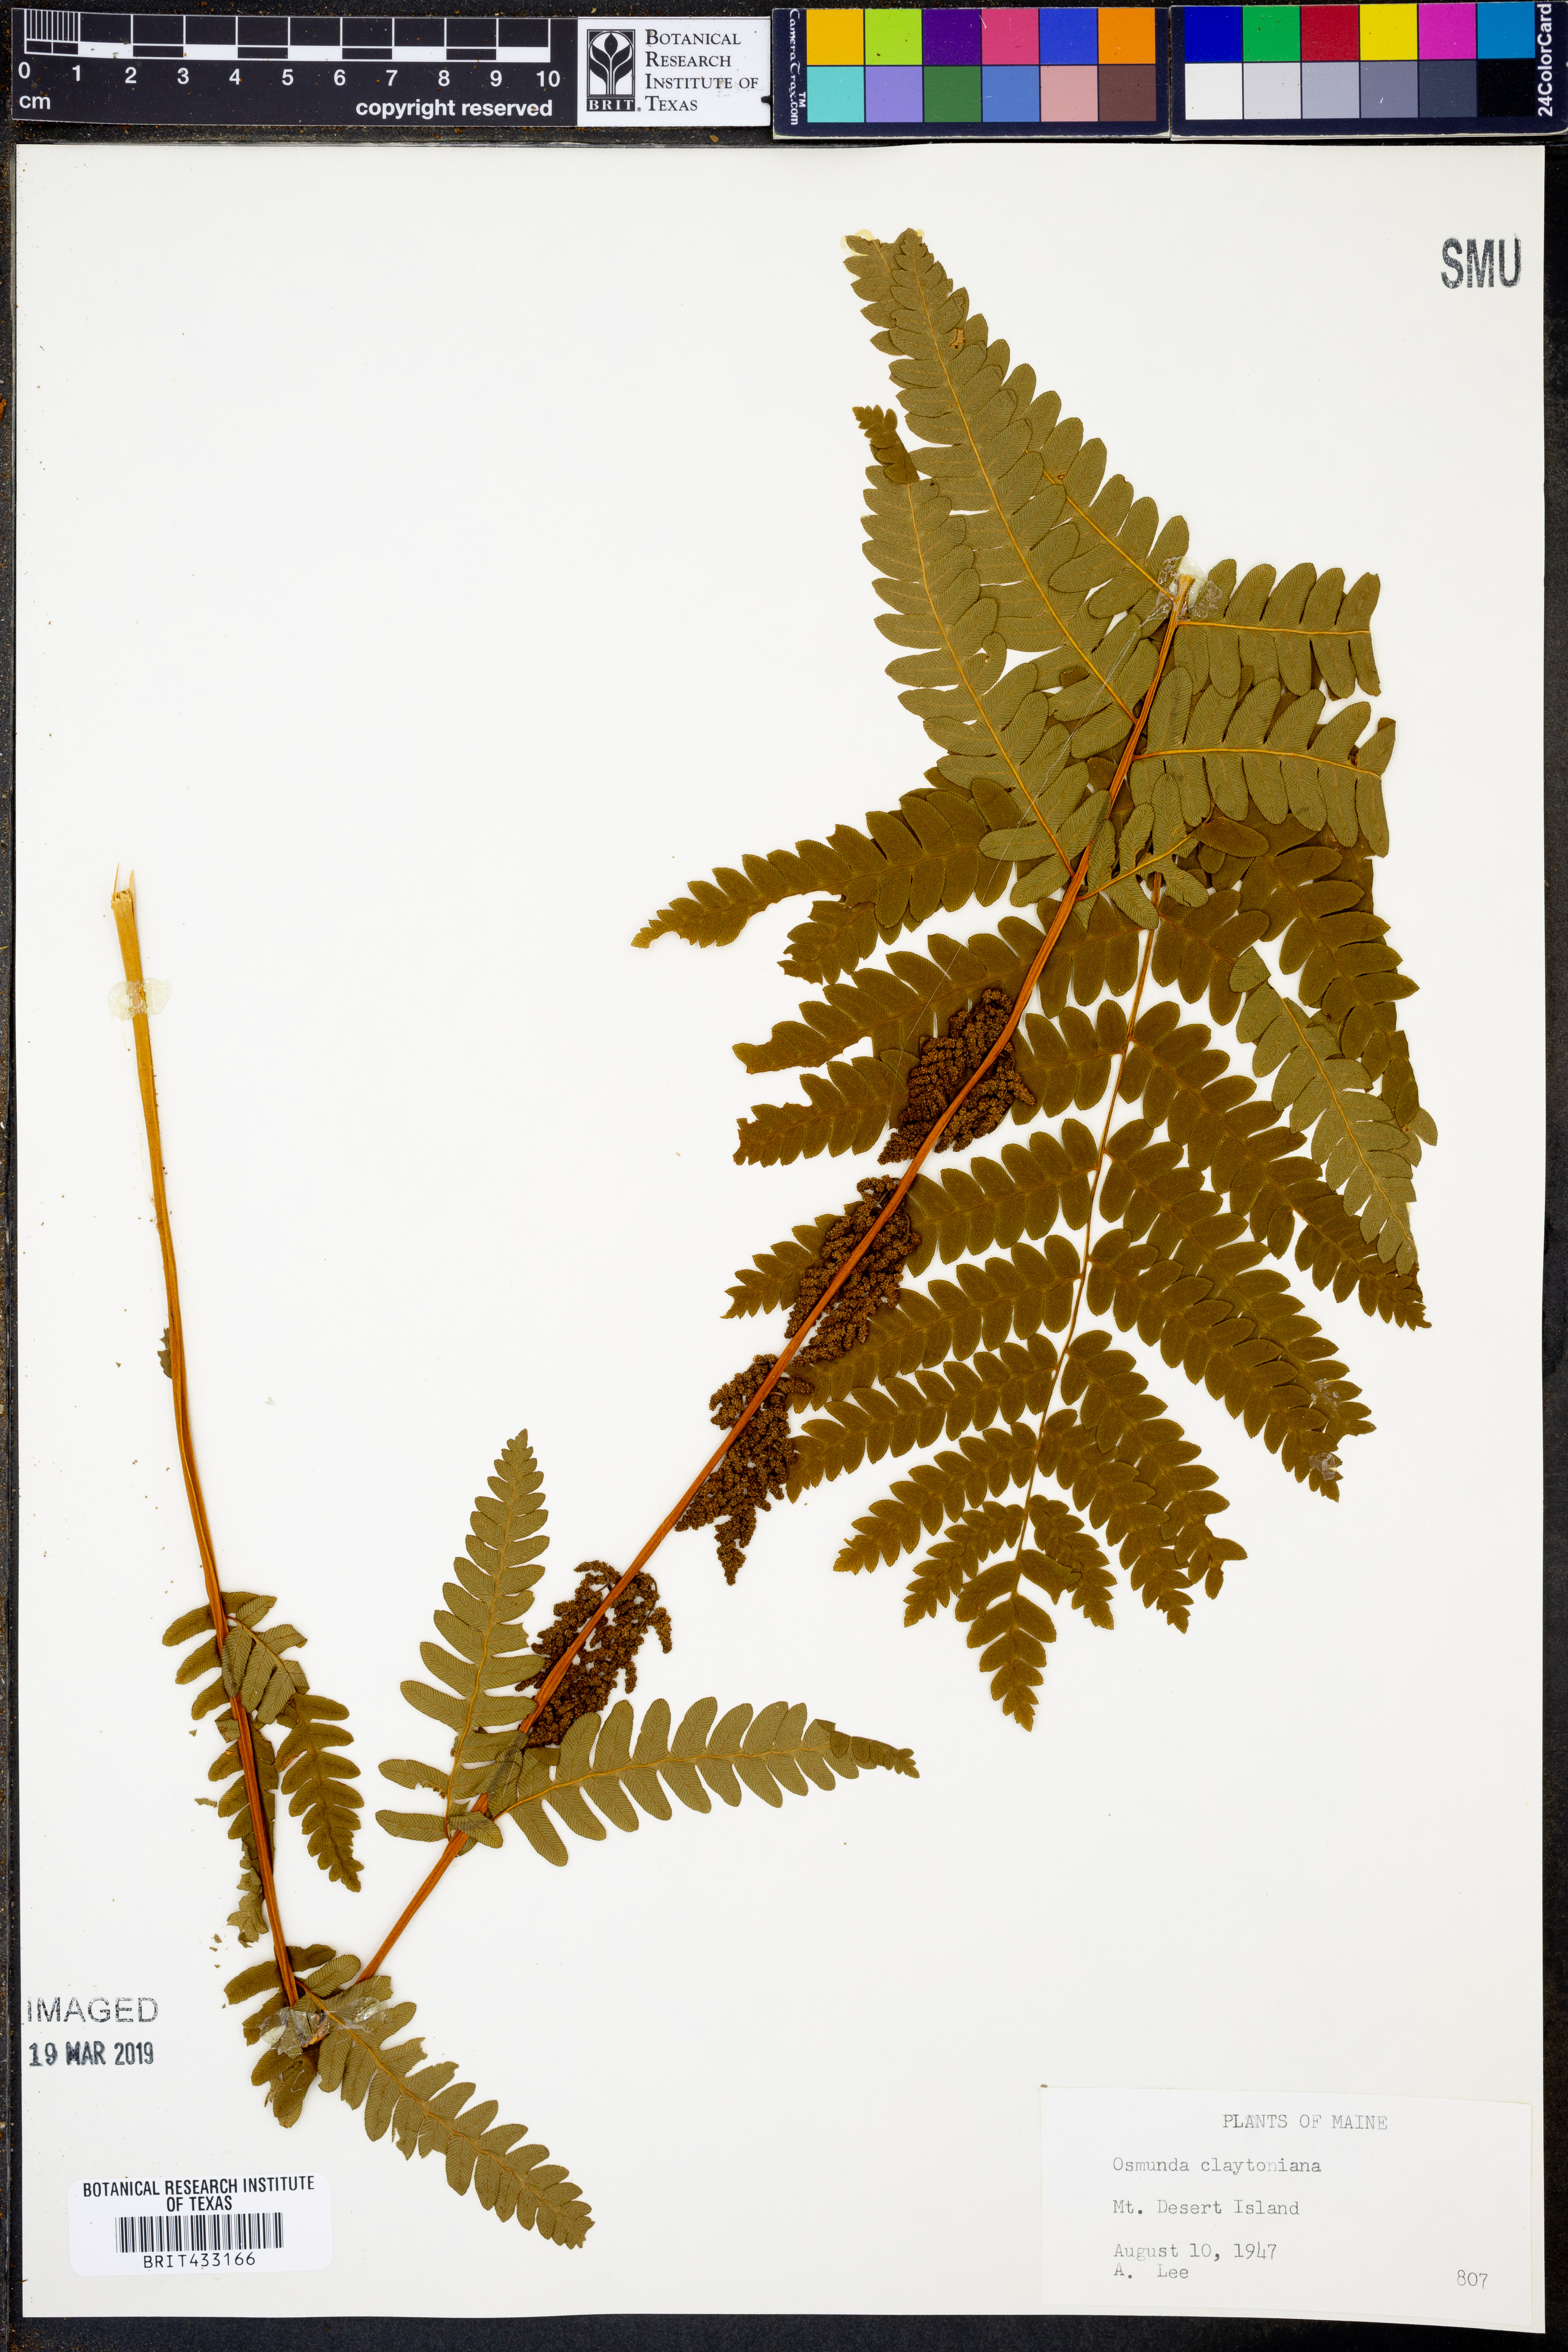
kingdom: Plantae
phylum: Tracheophyta
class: Polypodiopsida
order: Osmundales
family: Osmundaceae
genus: Claytosmunda
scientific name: Claytosmunda claytoniana
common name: Clayton's fern
